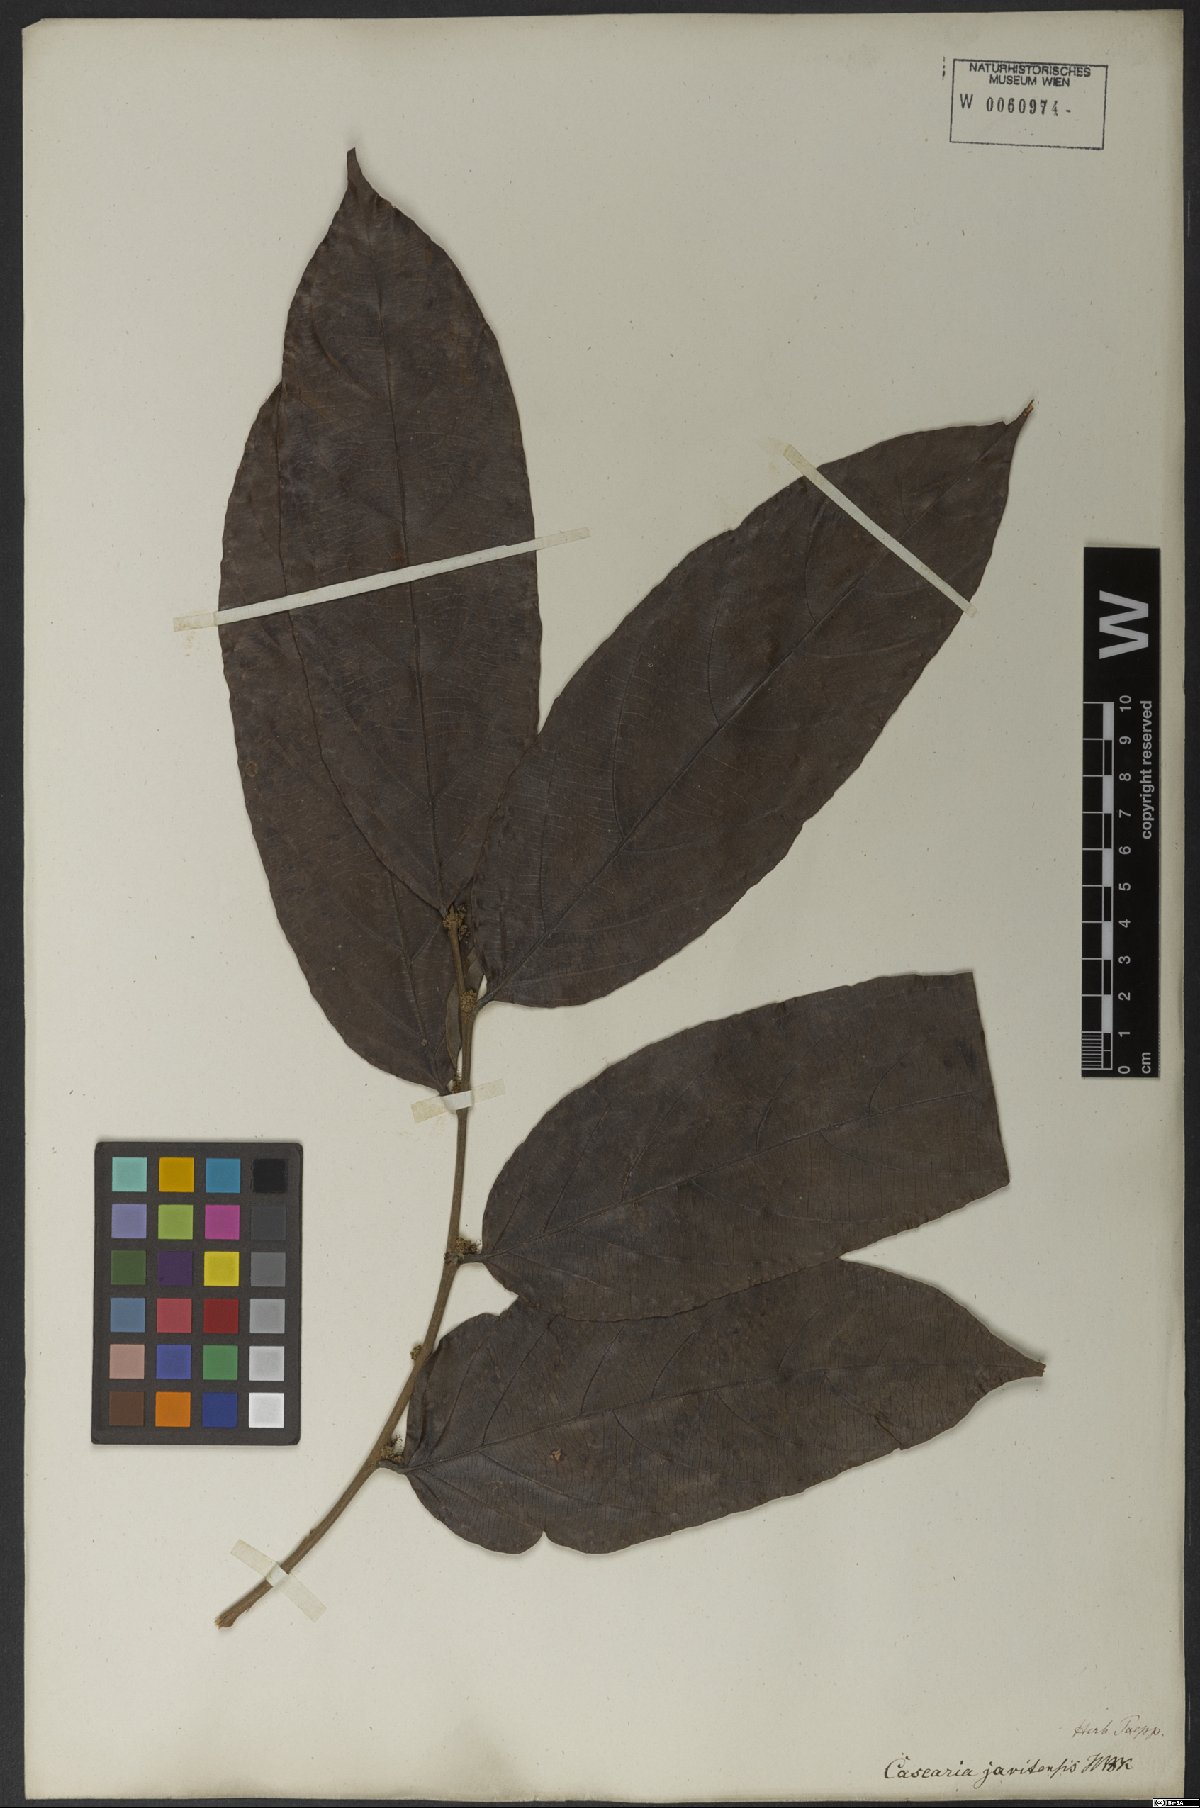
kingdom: Plantae
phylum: Tracheophyta
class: Magnoliopsida
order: Malpighiales
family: Salicaceae
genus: Piparea
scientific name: Piparea multiflora
